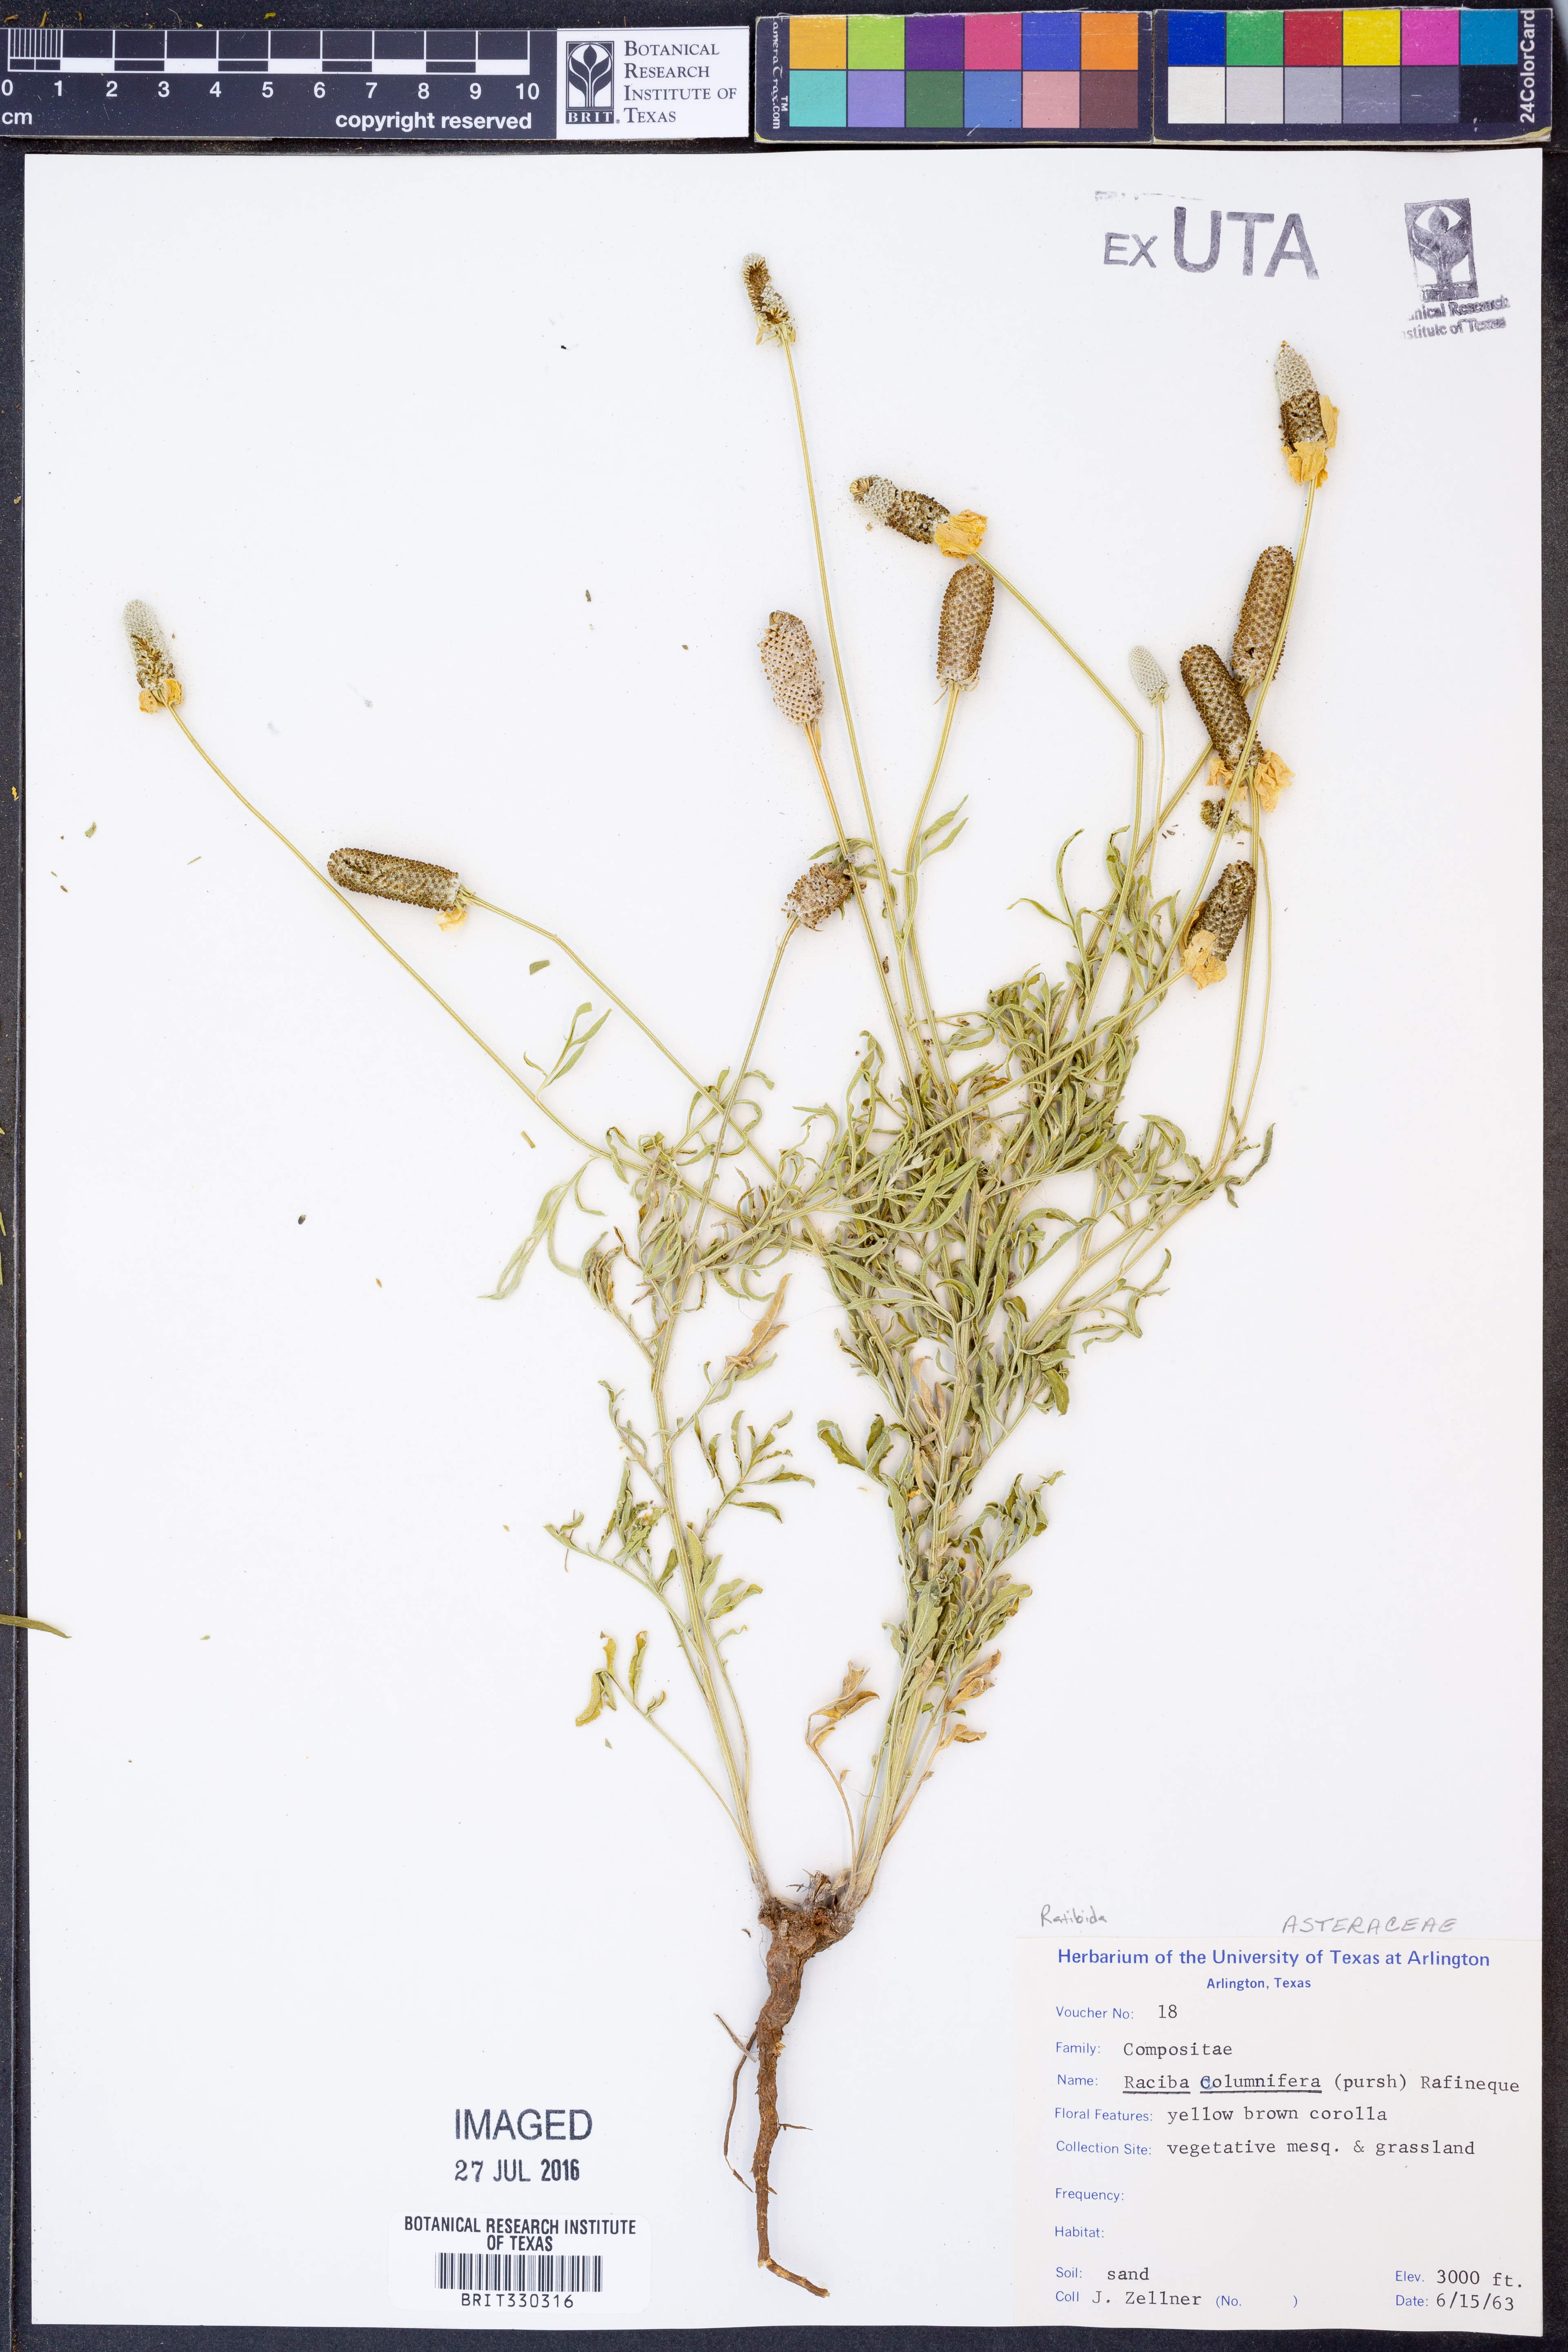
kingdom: Plantae
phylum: Tracheophyta
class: Magnoliopsida
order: Asterales
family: Asteraceae
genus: Ratibida
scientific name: Ratibida columnifera
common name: Prairie coneflower
